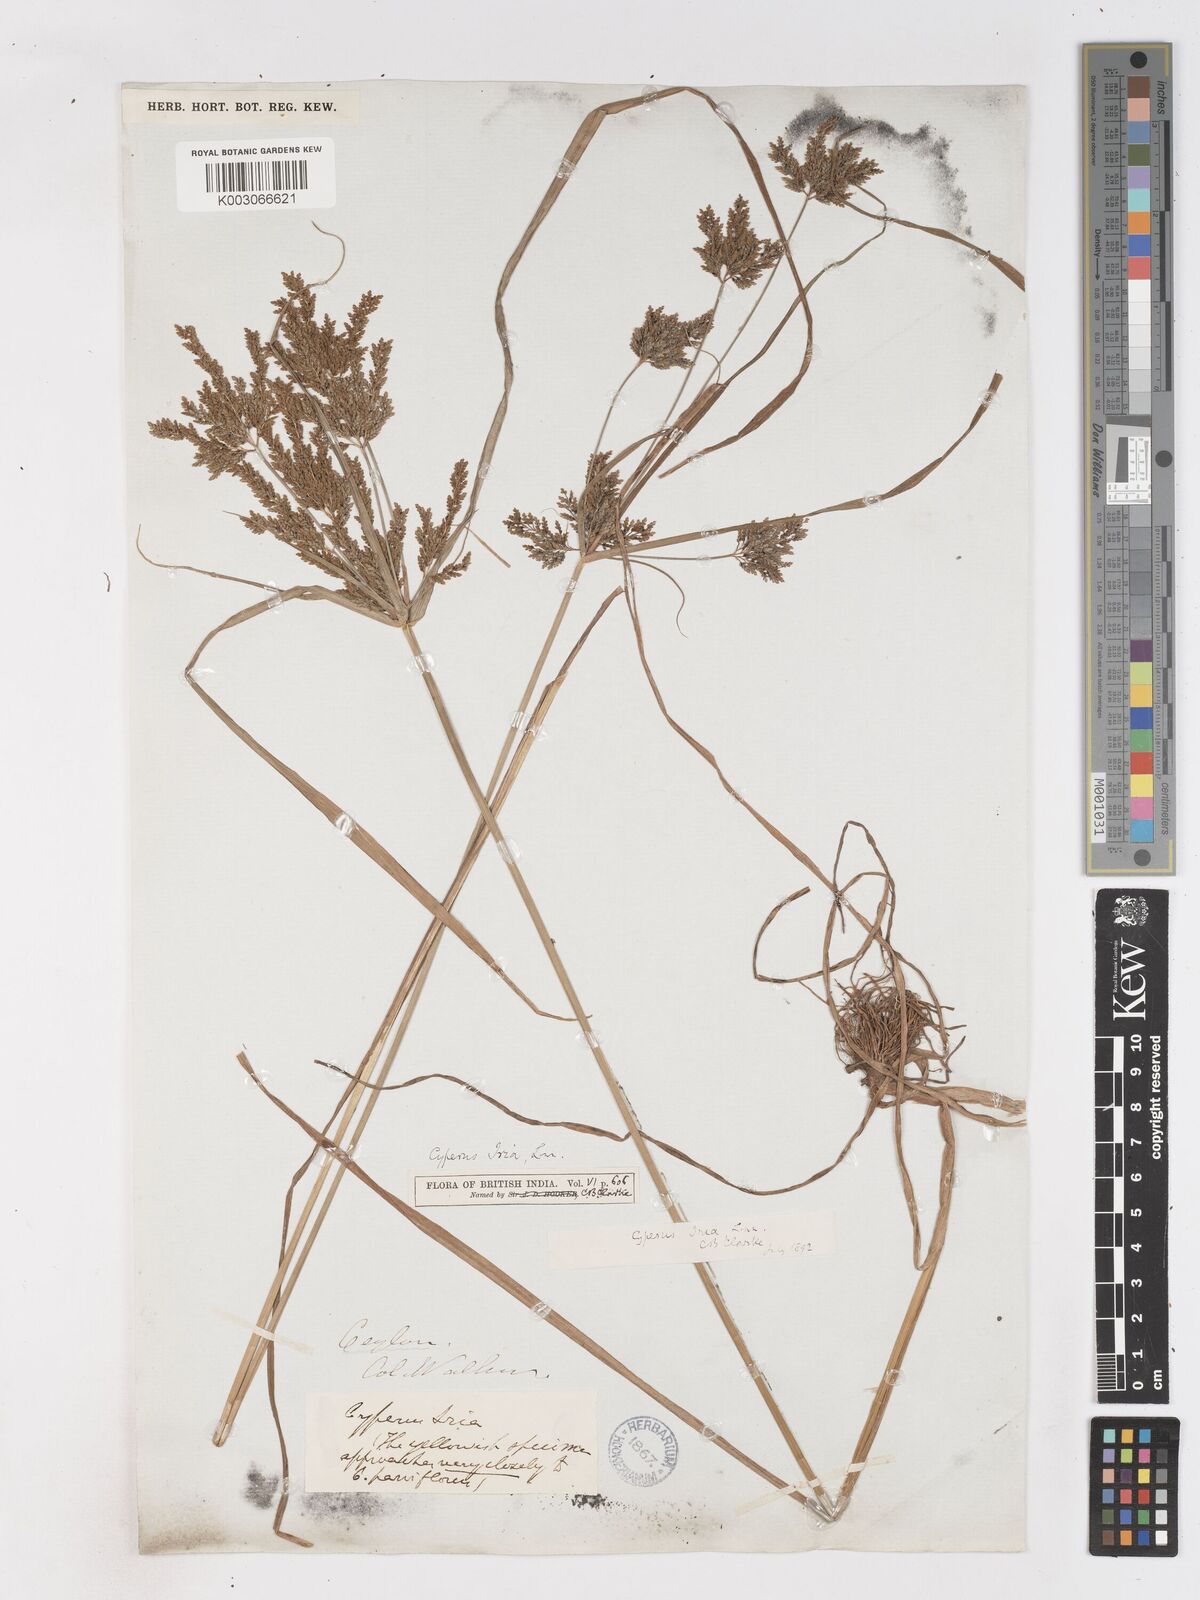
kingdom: Plantae
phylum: Tracheophyta
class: Liliopsida
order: Poales
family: Cyperaceae
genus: Cyperus
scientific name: Cyperus microiria
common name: Asian flatsedge
